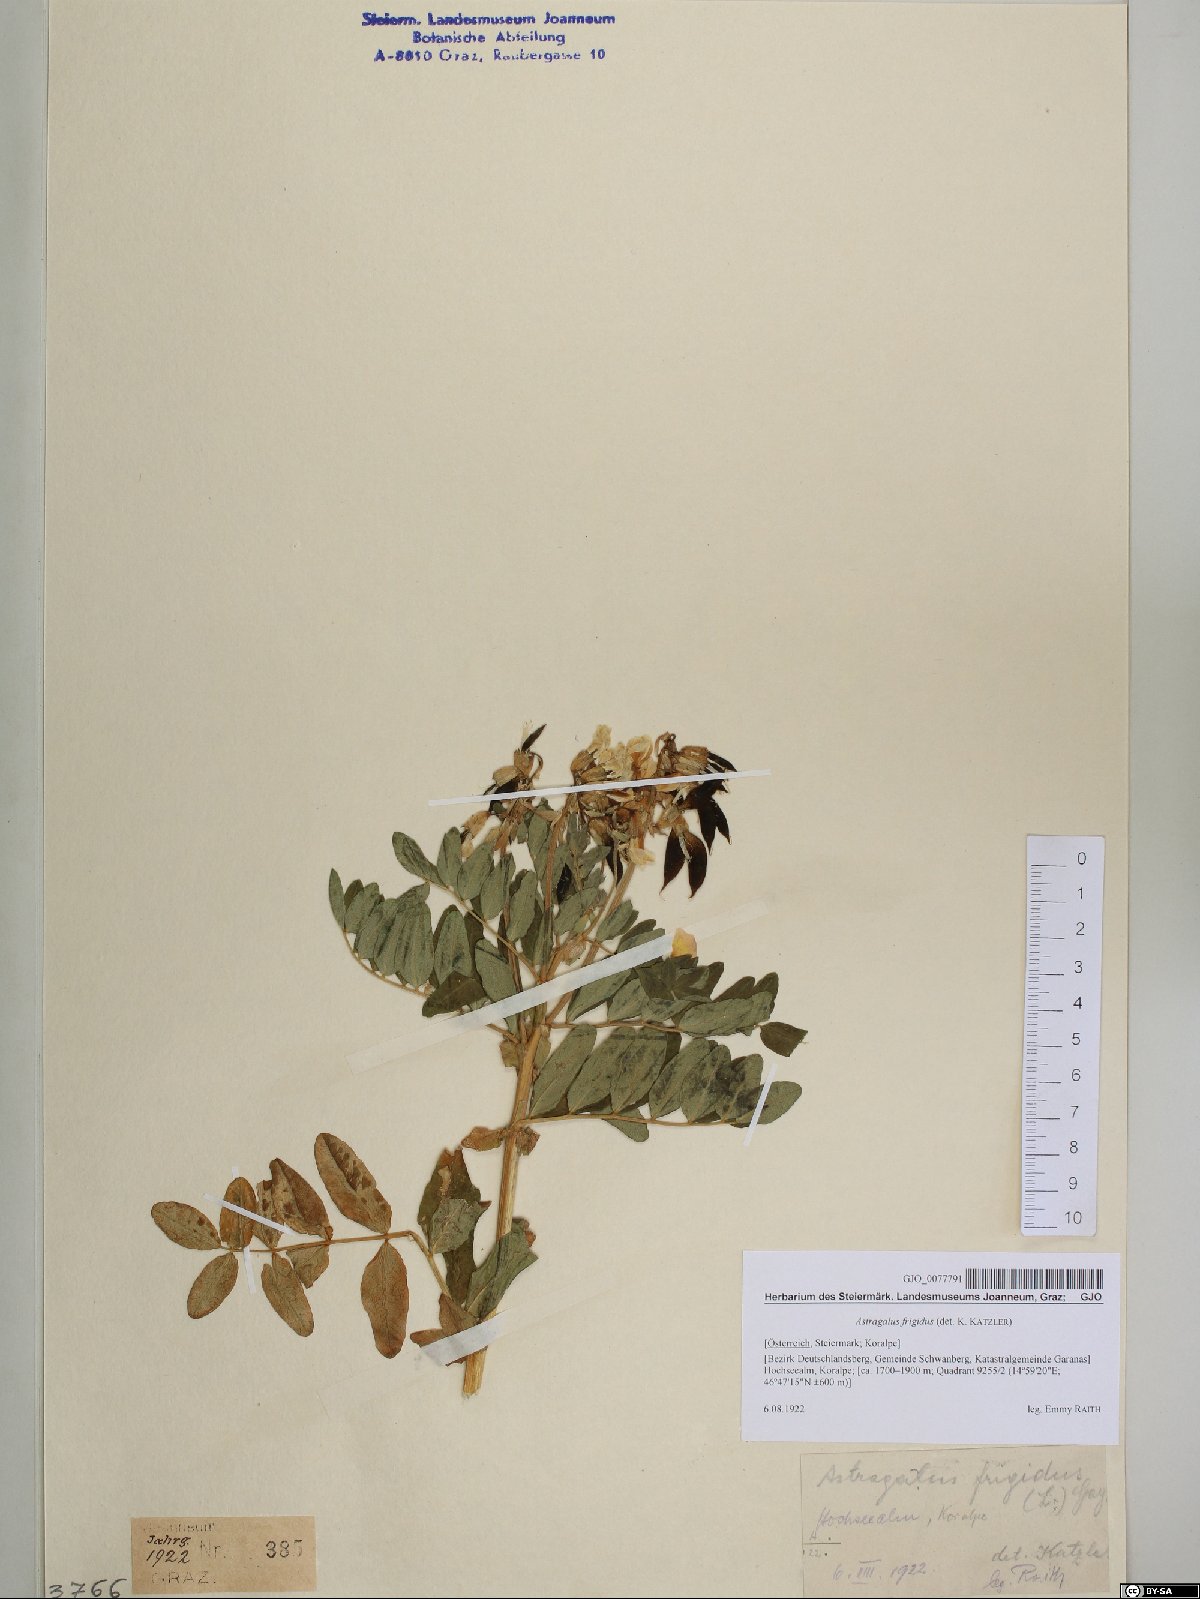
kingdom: Plantae
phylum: Tracheophyta
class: Magnoliopsida
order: Fabales
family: Fabaceae
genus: Astragalus
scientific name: Astragalus frigidus
